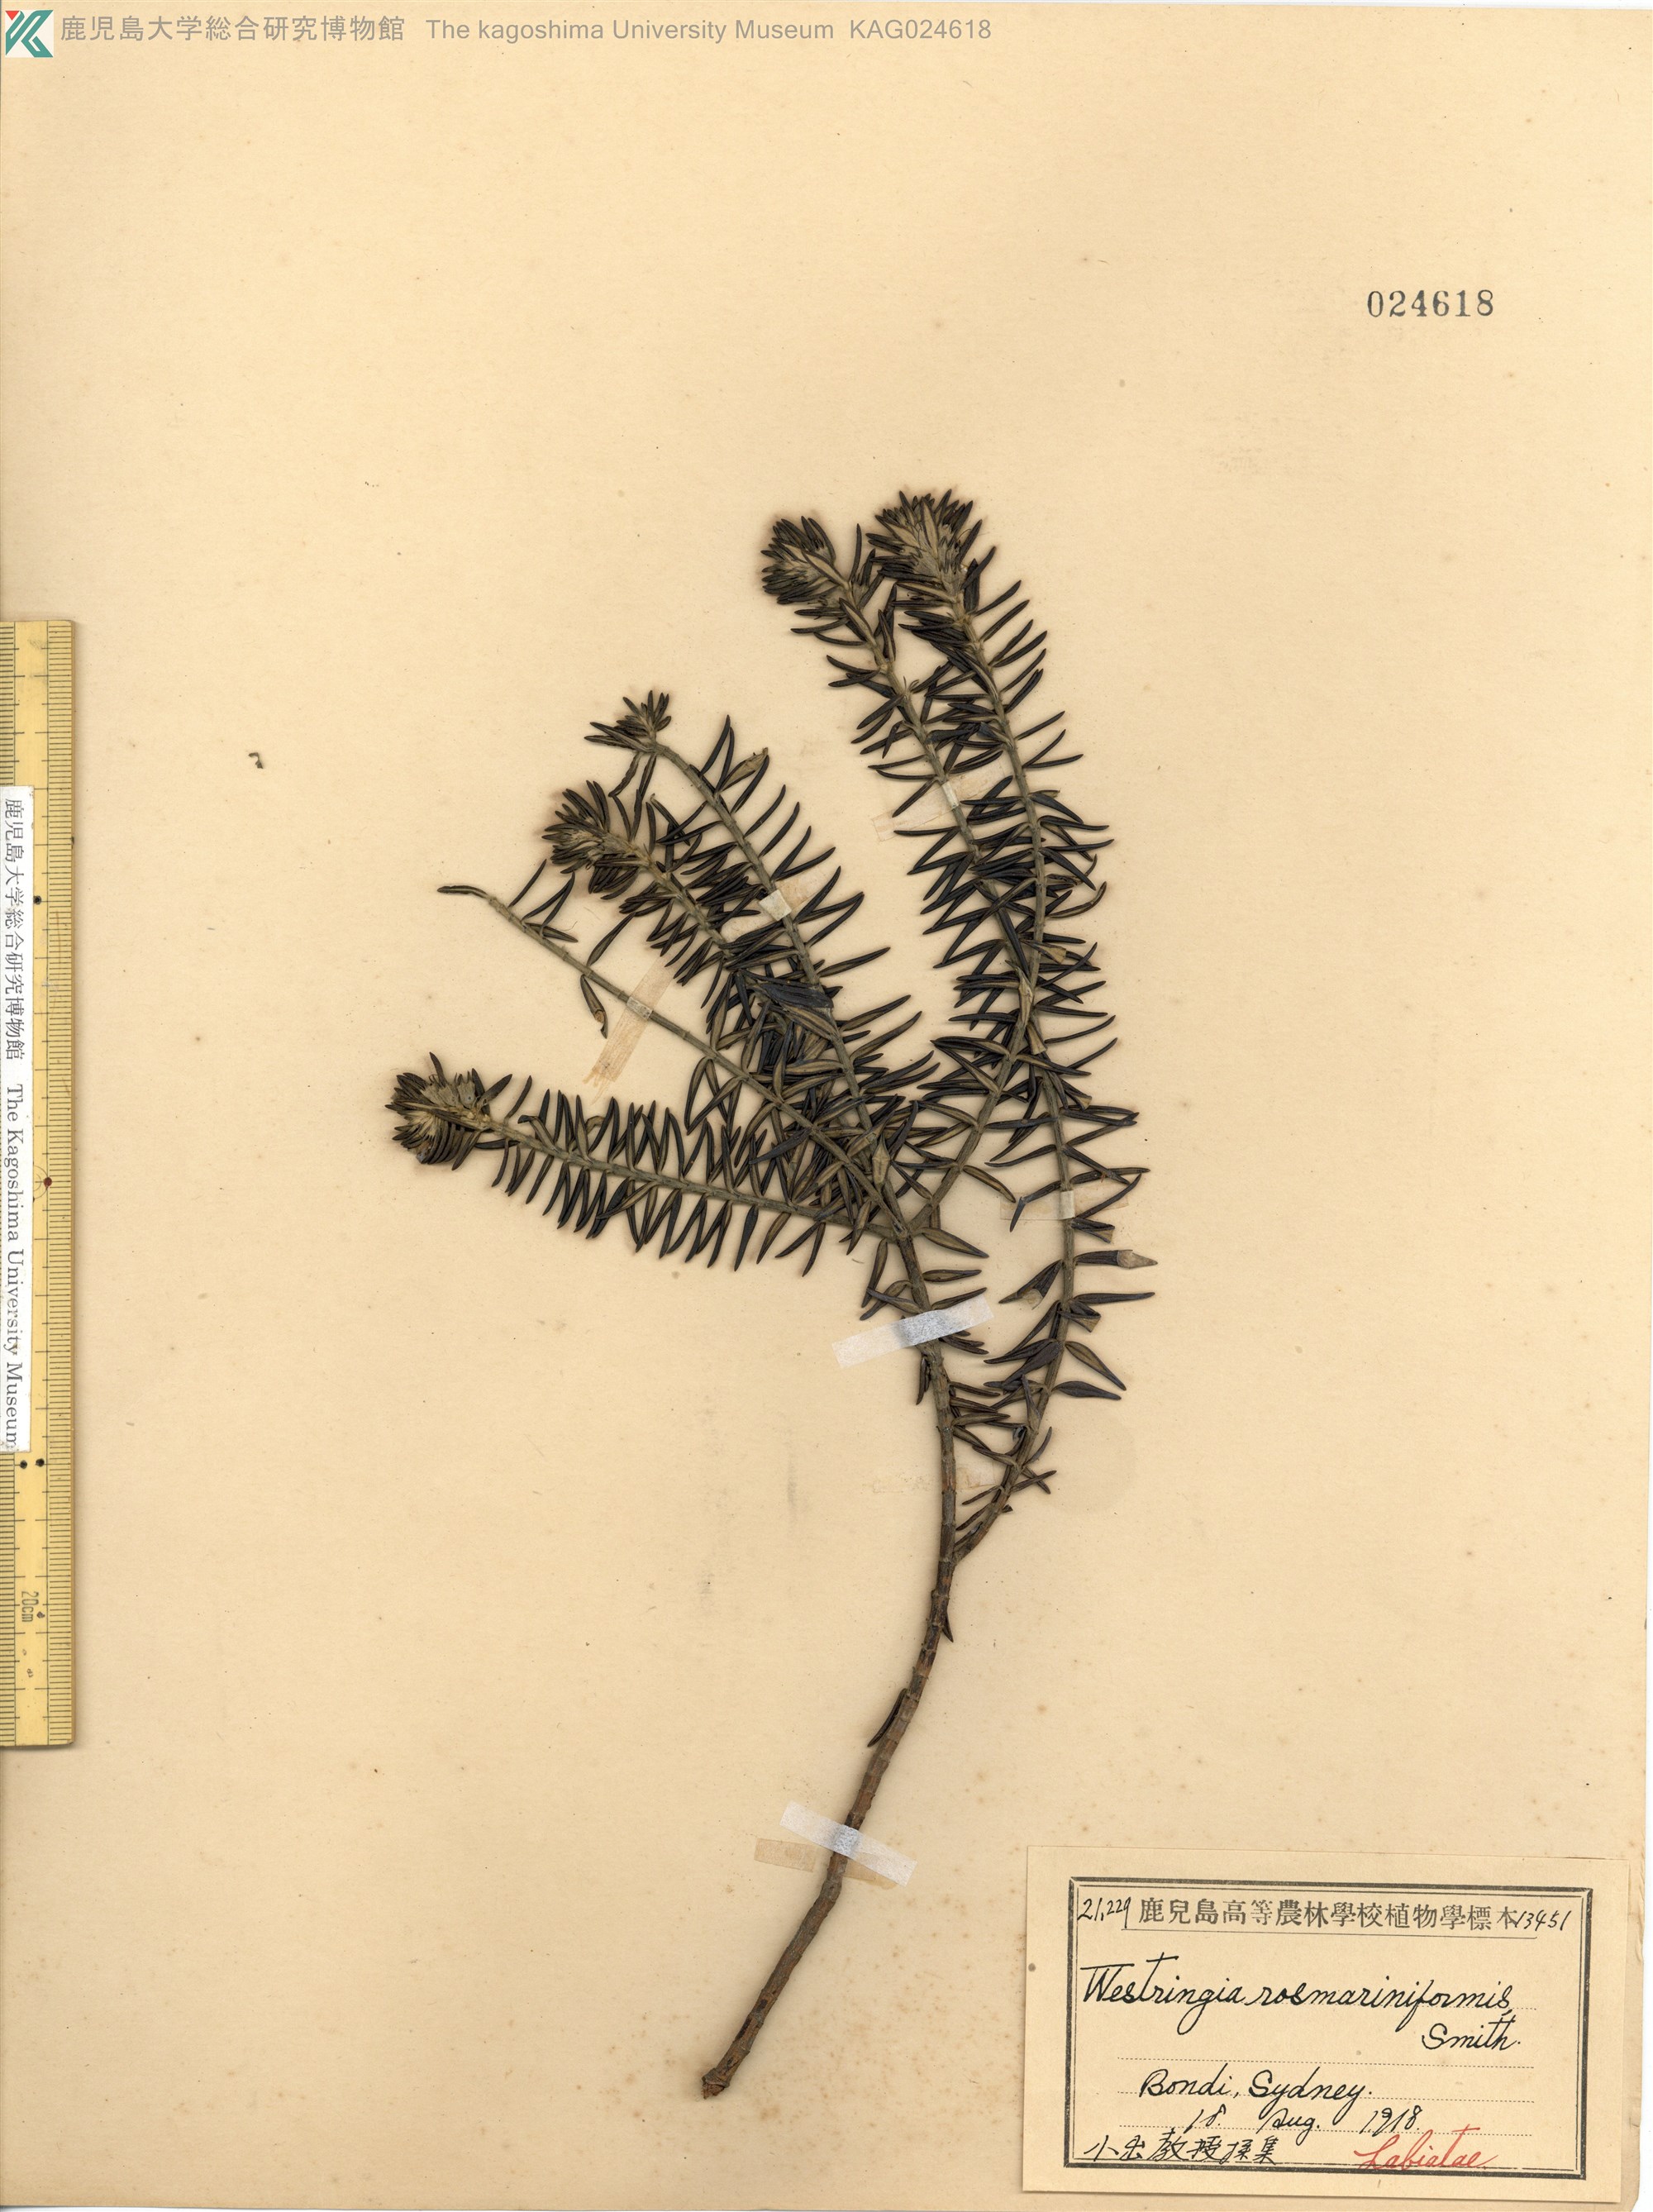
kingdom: Plantae
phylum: Tracheophyta
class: Magnoliopsida
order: Lamiales
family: Lamiaceae
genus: Westringia
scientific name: Westringia rosmariniformis
